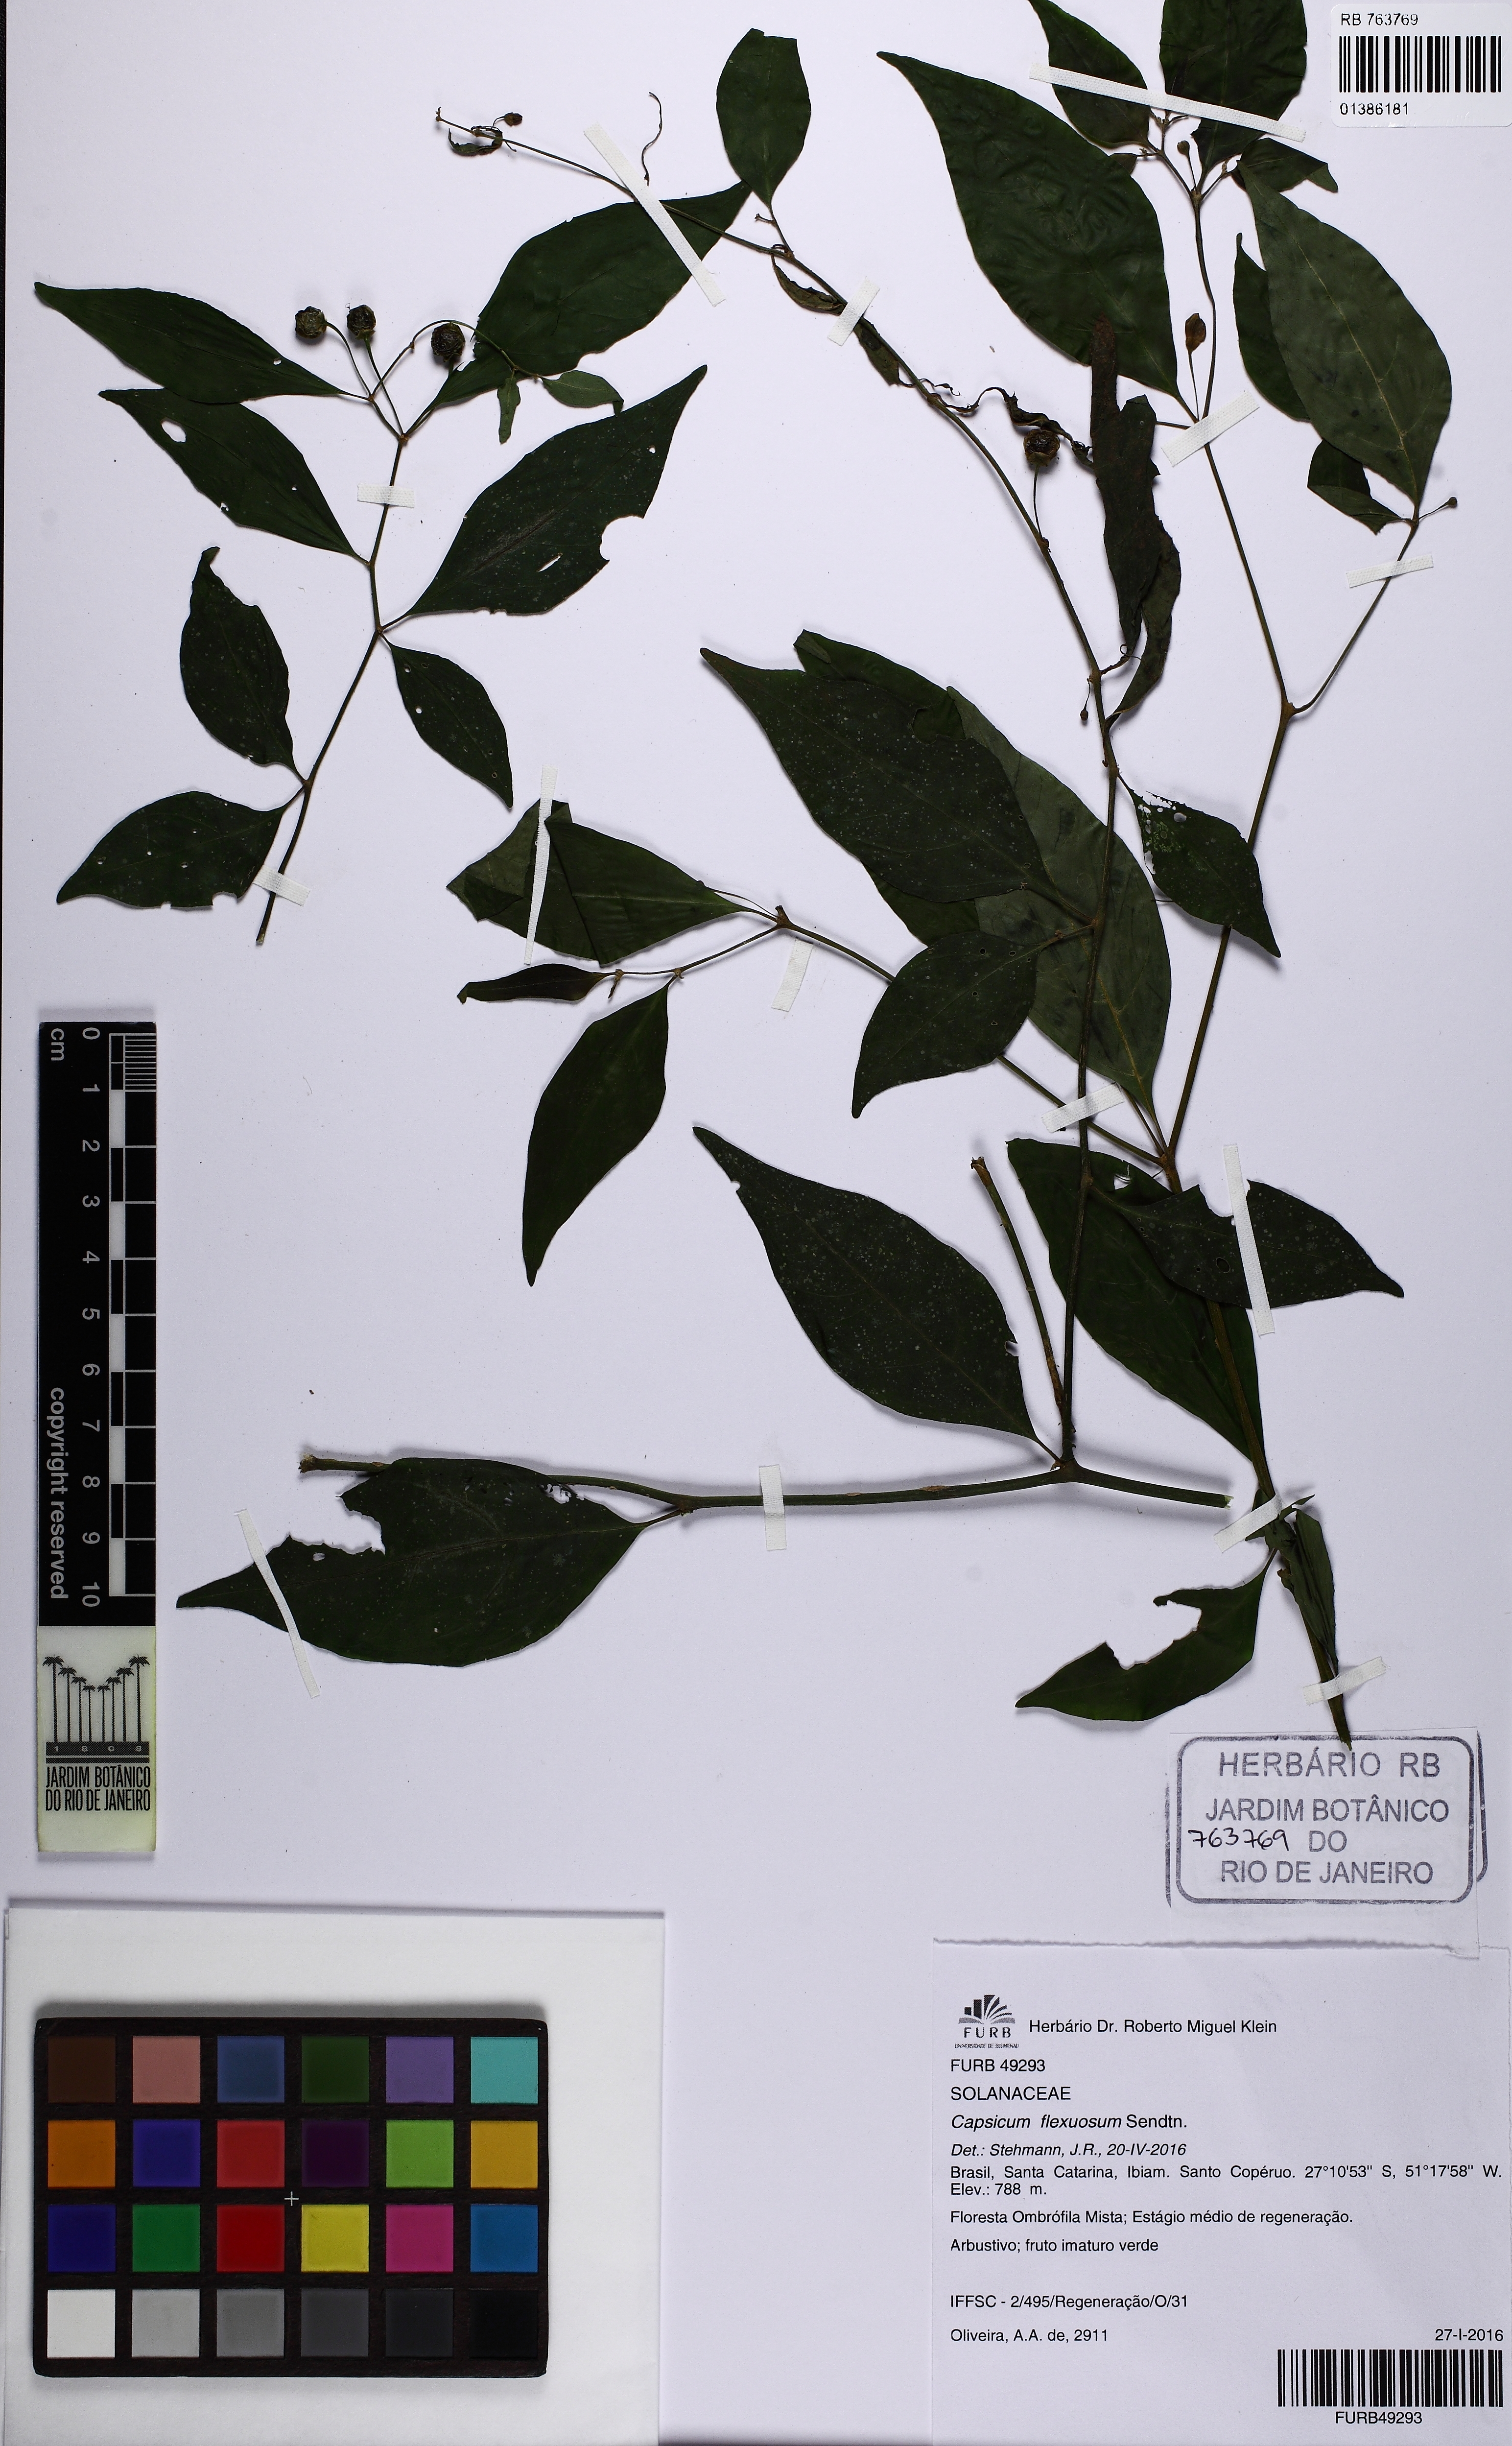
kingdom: Plantae
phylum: Tracheophyta
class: Magnoliopsida
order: Solanales
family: Solanaceae
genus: Capsicum
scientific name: Capsicum flexuosum
